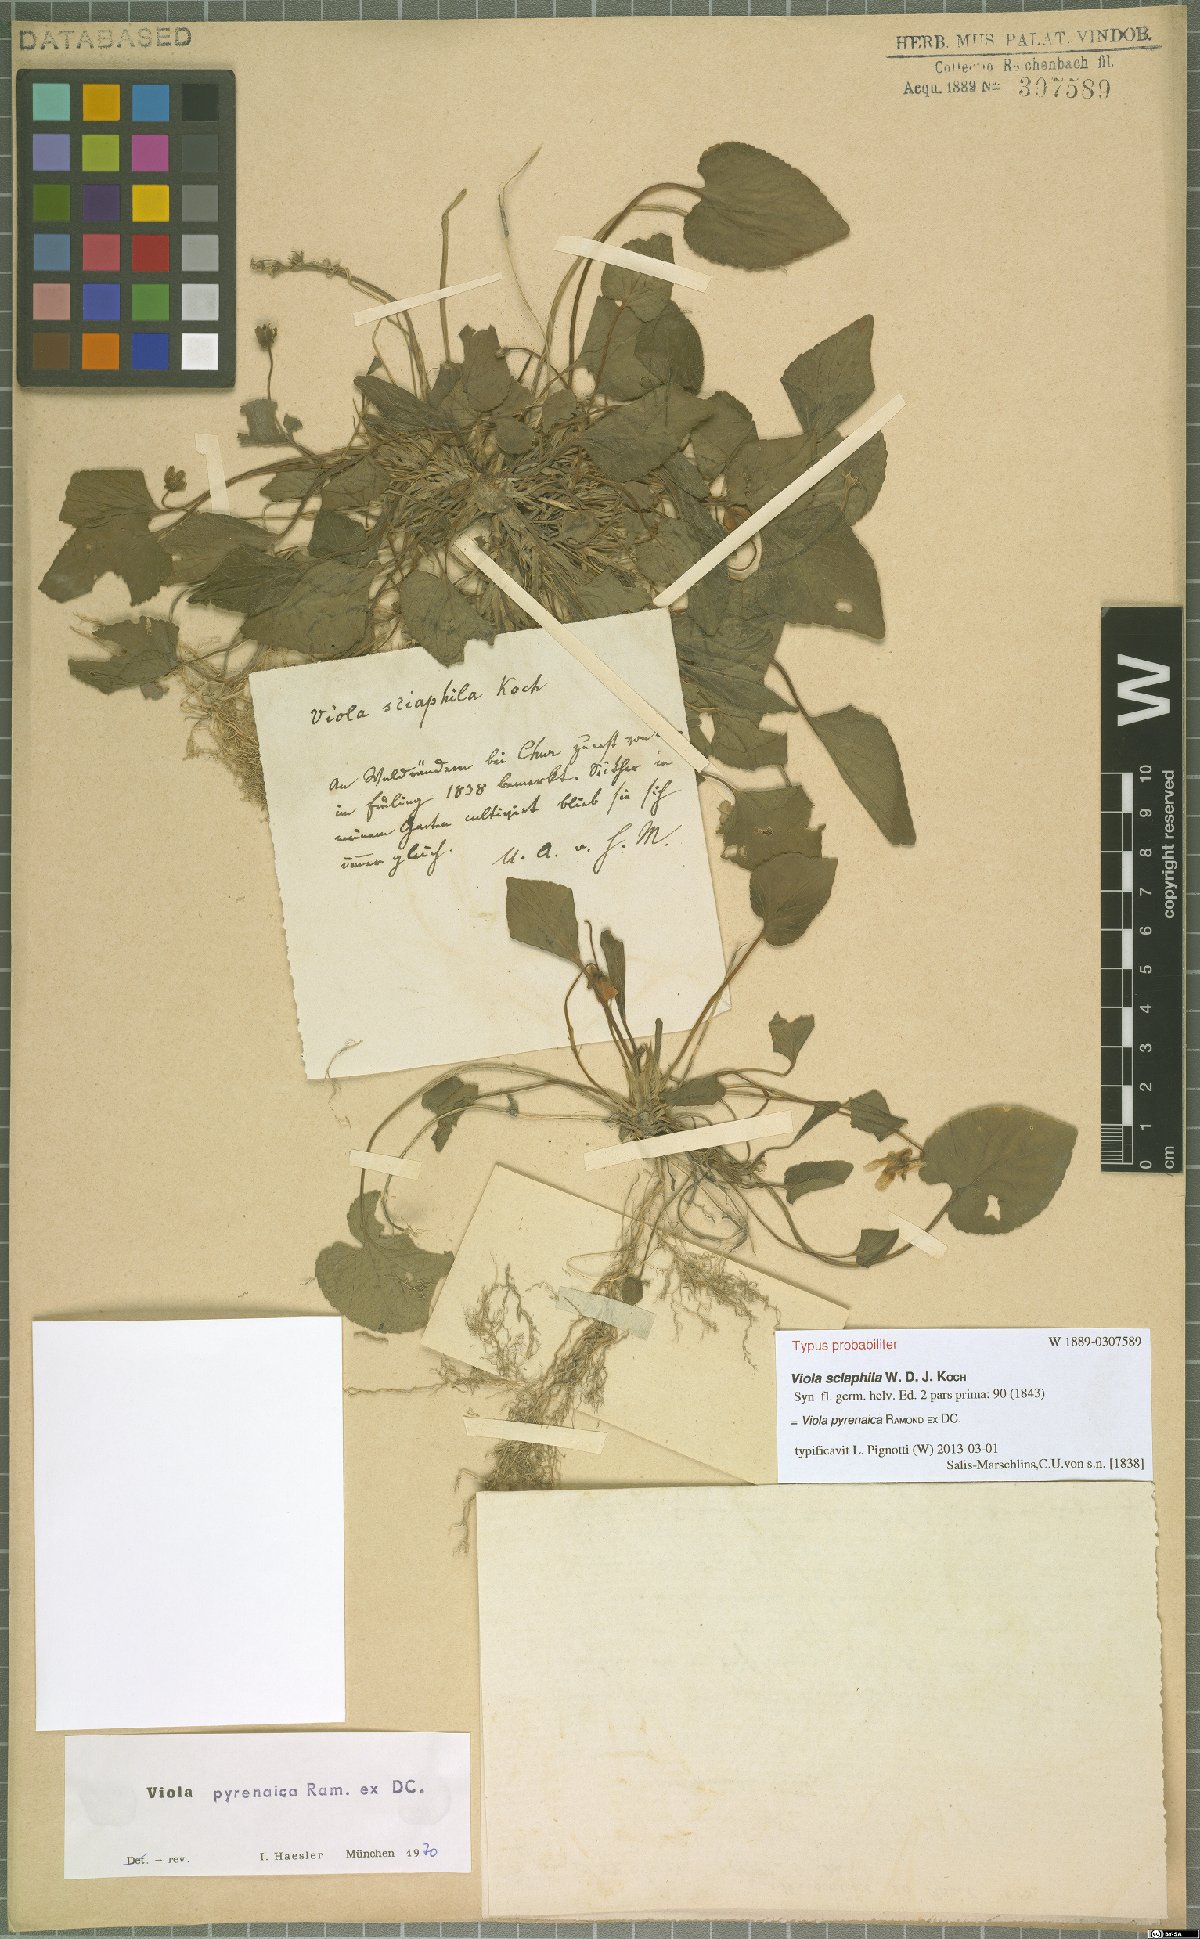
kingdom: Plantae
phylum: Tracheophyta
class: Magnoliopsida
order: Malpighiales
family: Violaceae
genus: Viola
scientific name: Viola pyrenaica
